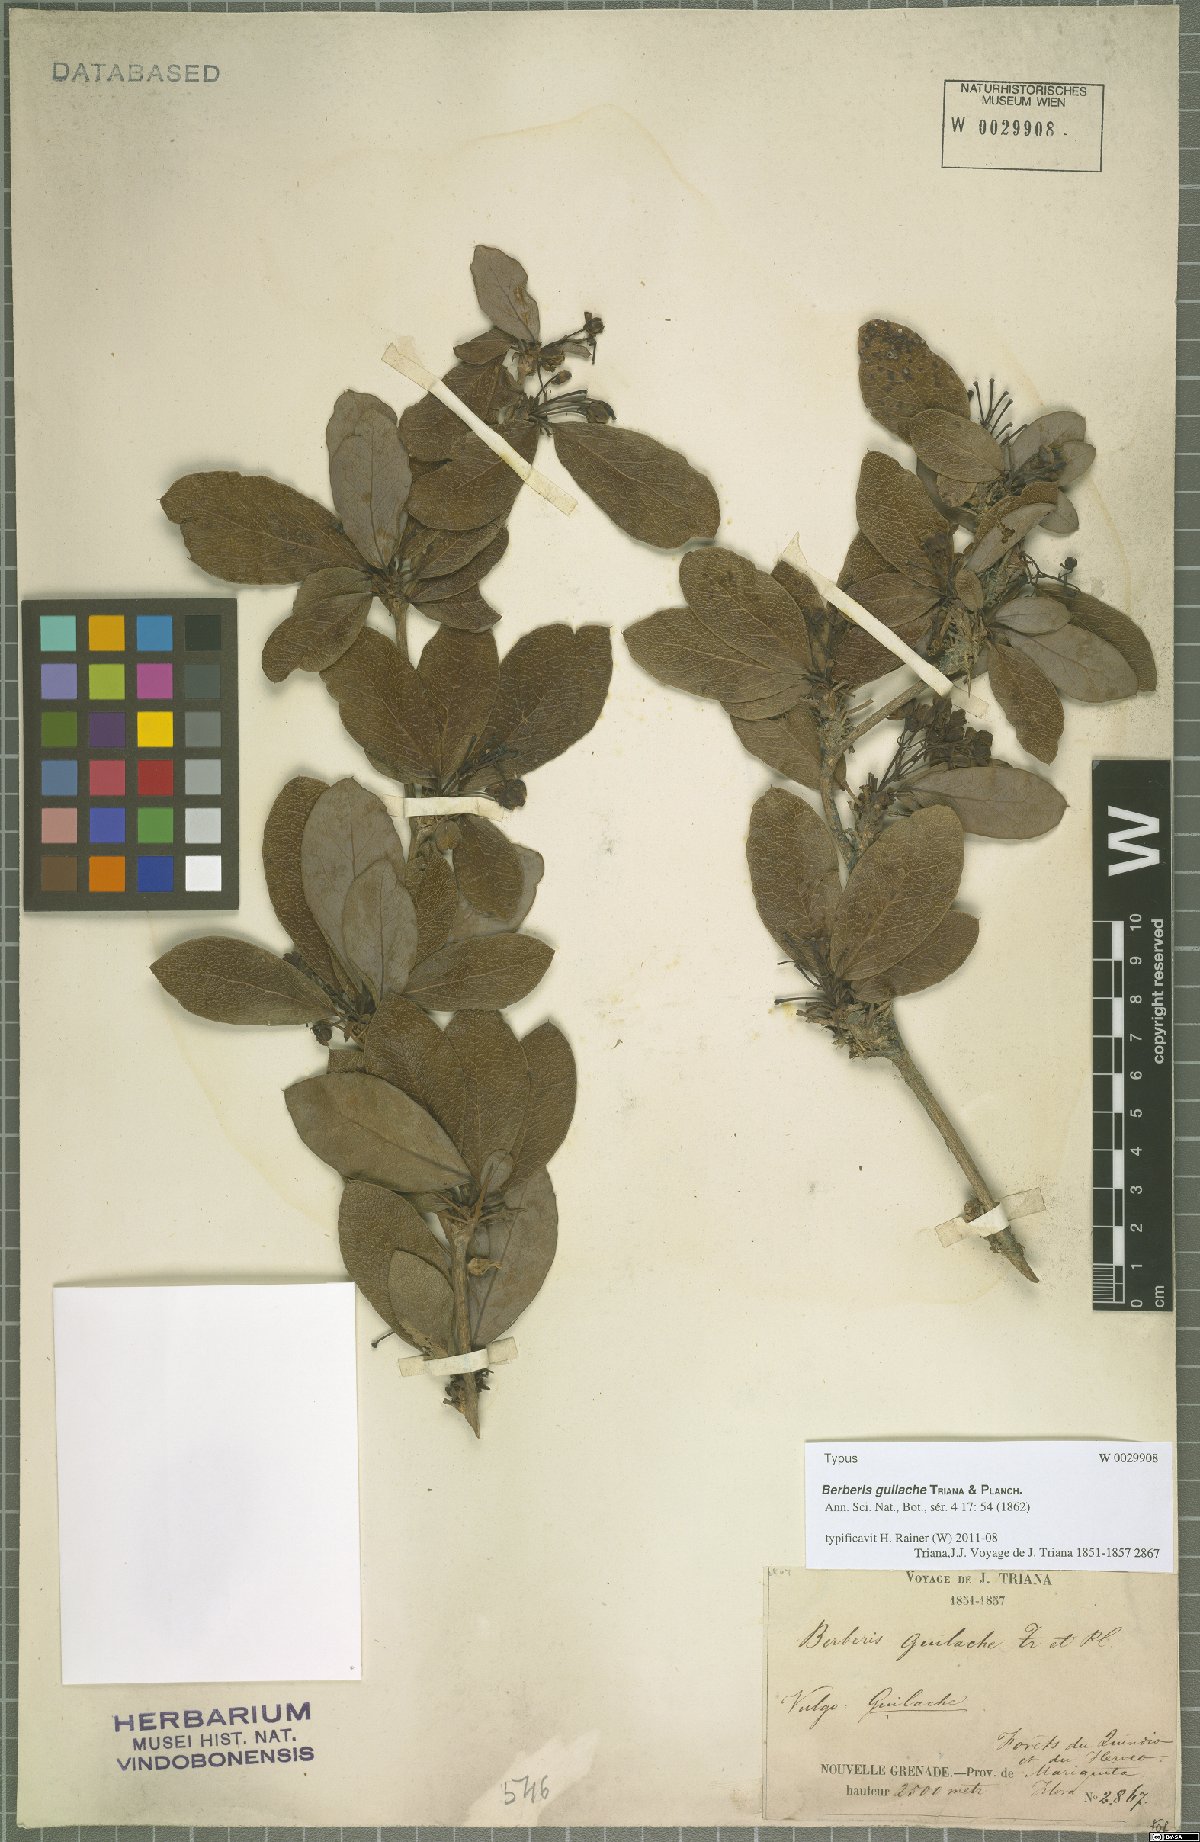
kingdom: Plantae
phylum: Tracheophyta
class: Magnoliopsida
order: Ranunculales
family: Berberidaceae
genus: Berberis
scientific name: Berberis guilache
